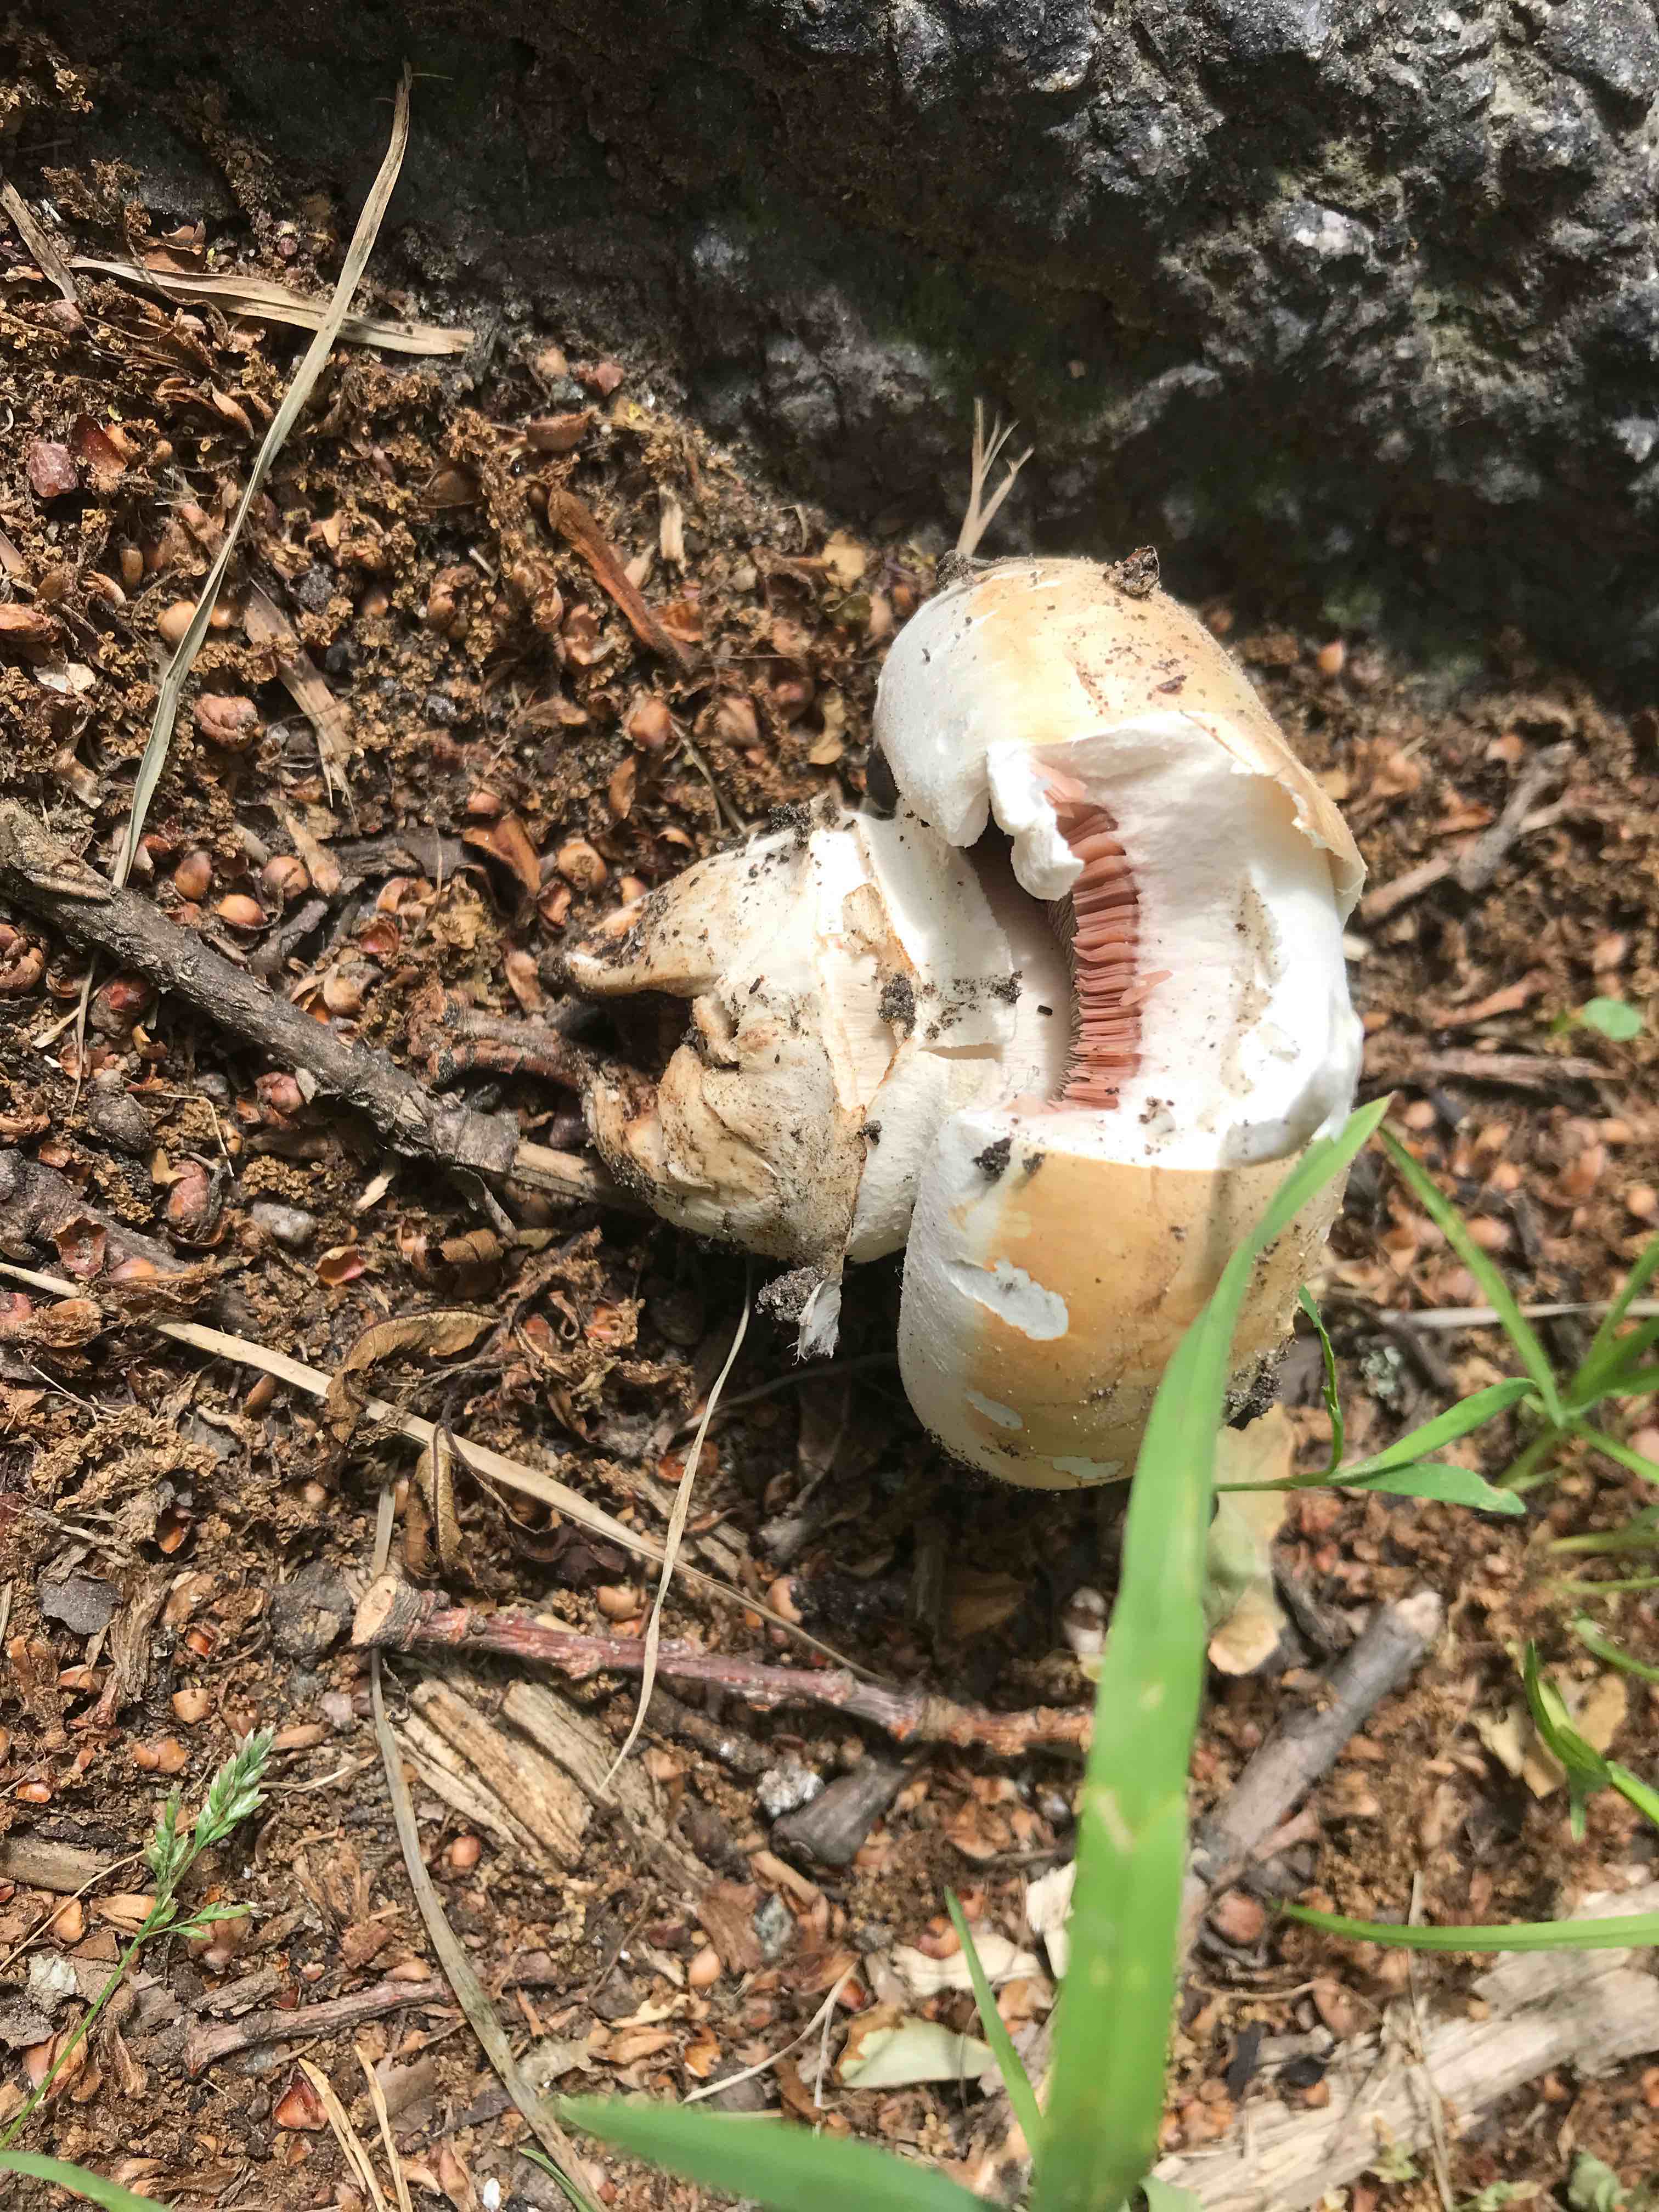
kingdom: Fungi
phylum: Basidiomycota
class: Agaricomycetes
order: Agaricales
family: Agaricaceae
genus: Agaricus
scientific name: Agaricus bitorquis
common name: vej-champignon
